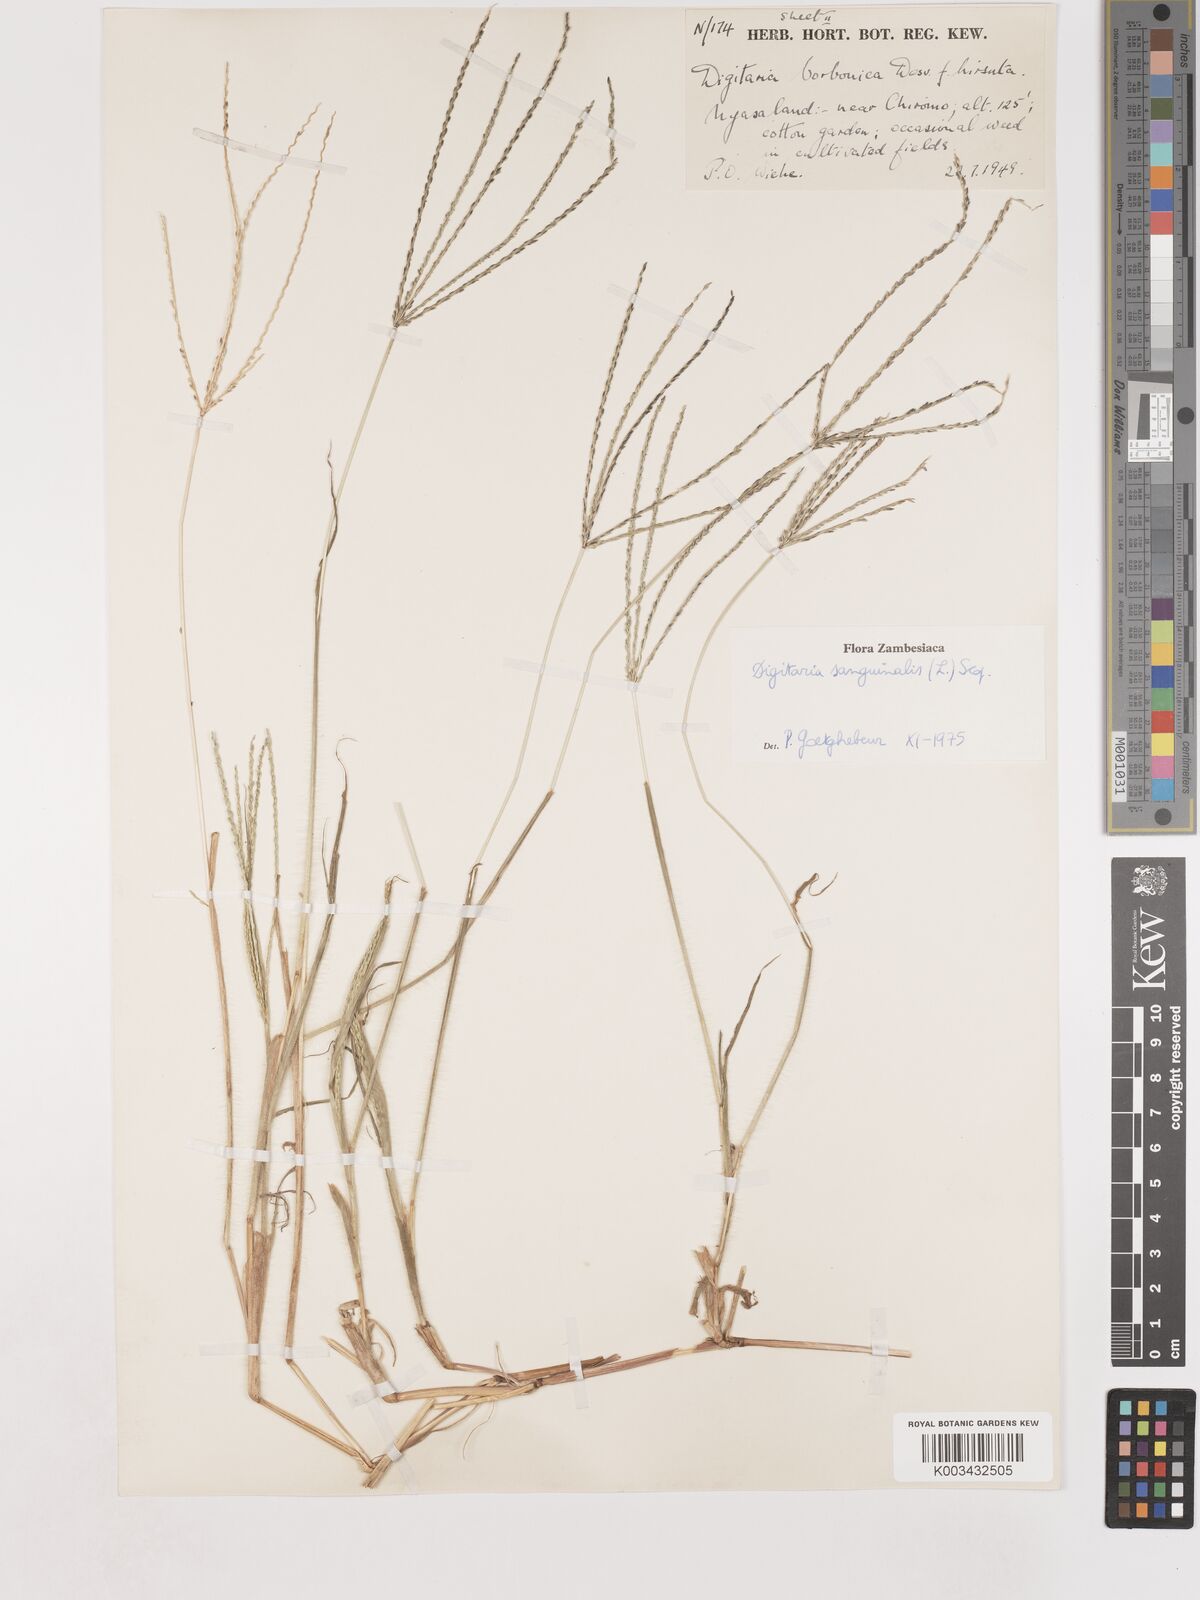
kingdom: Plantae
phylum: Tracheophyta
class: Liliopsida
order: Poales
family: Poaceae
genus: Digitaria
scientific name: Digitaria sanguinalis
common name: Hairy crabgrass
